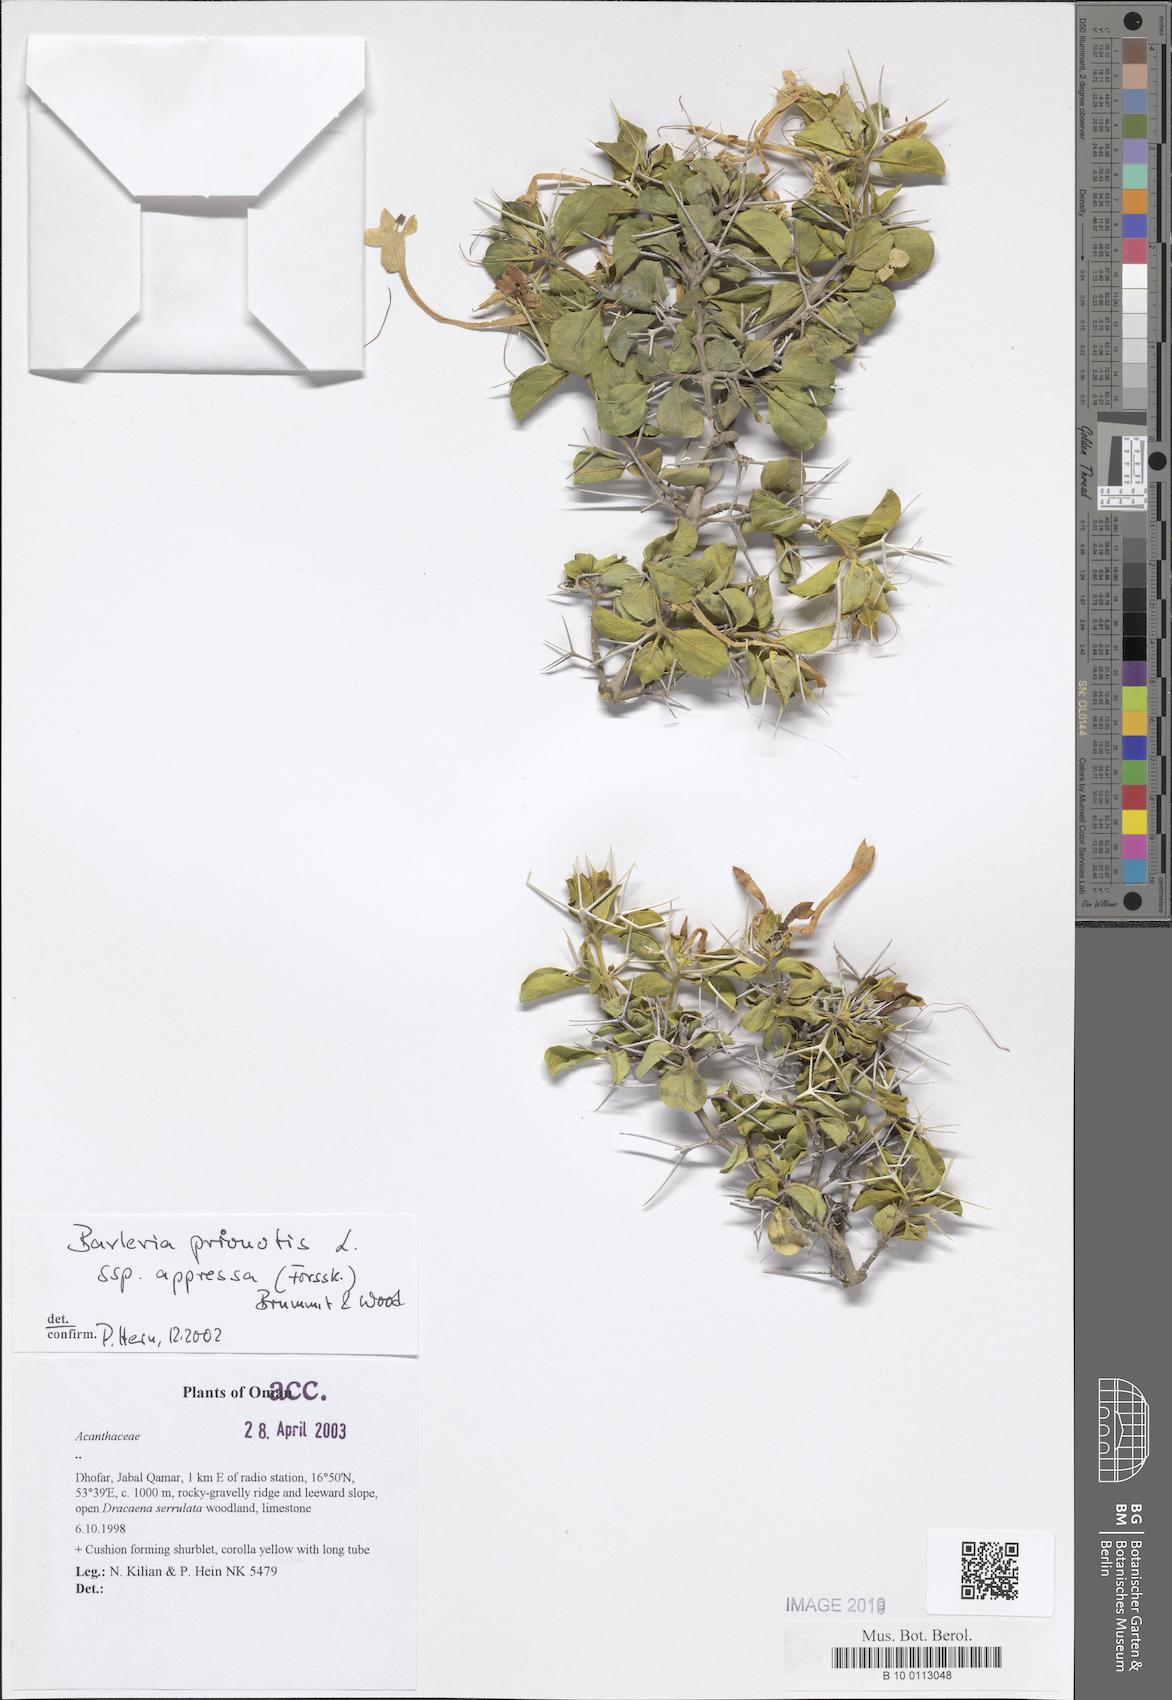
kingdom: Plantae
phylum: Tracheophyta
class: Magnoliopsida
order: Lamiales
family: Acanthaceae
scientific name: Acanthaceae
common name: Acanthaceae
